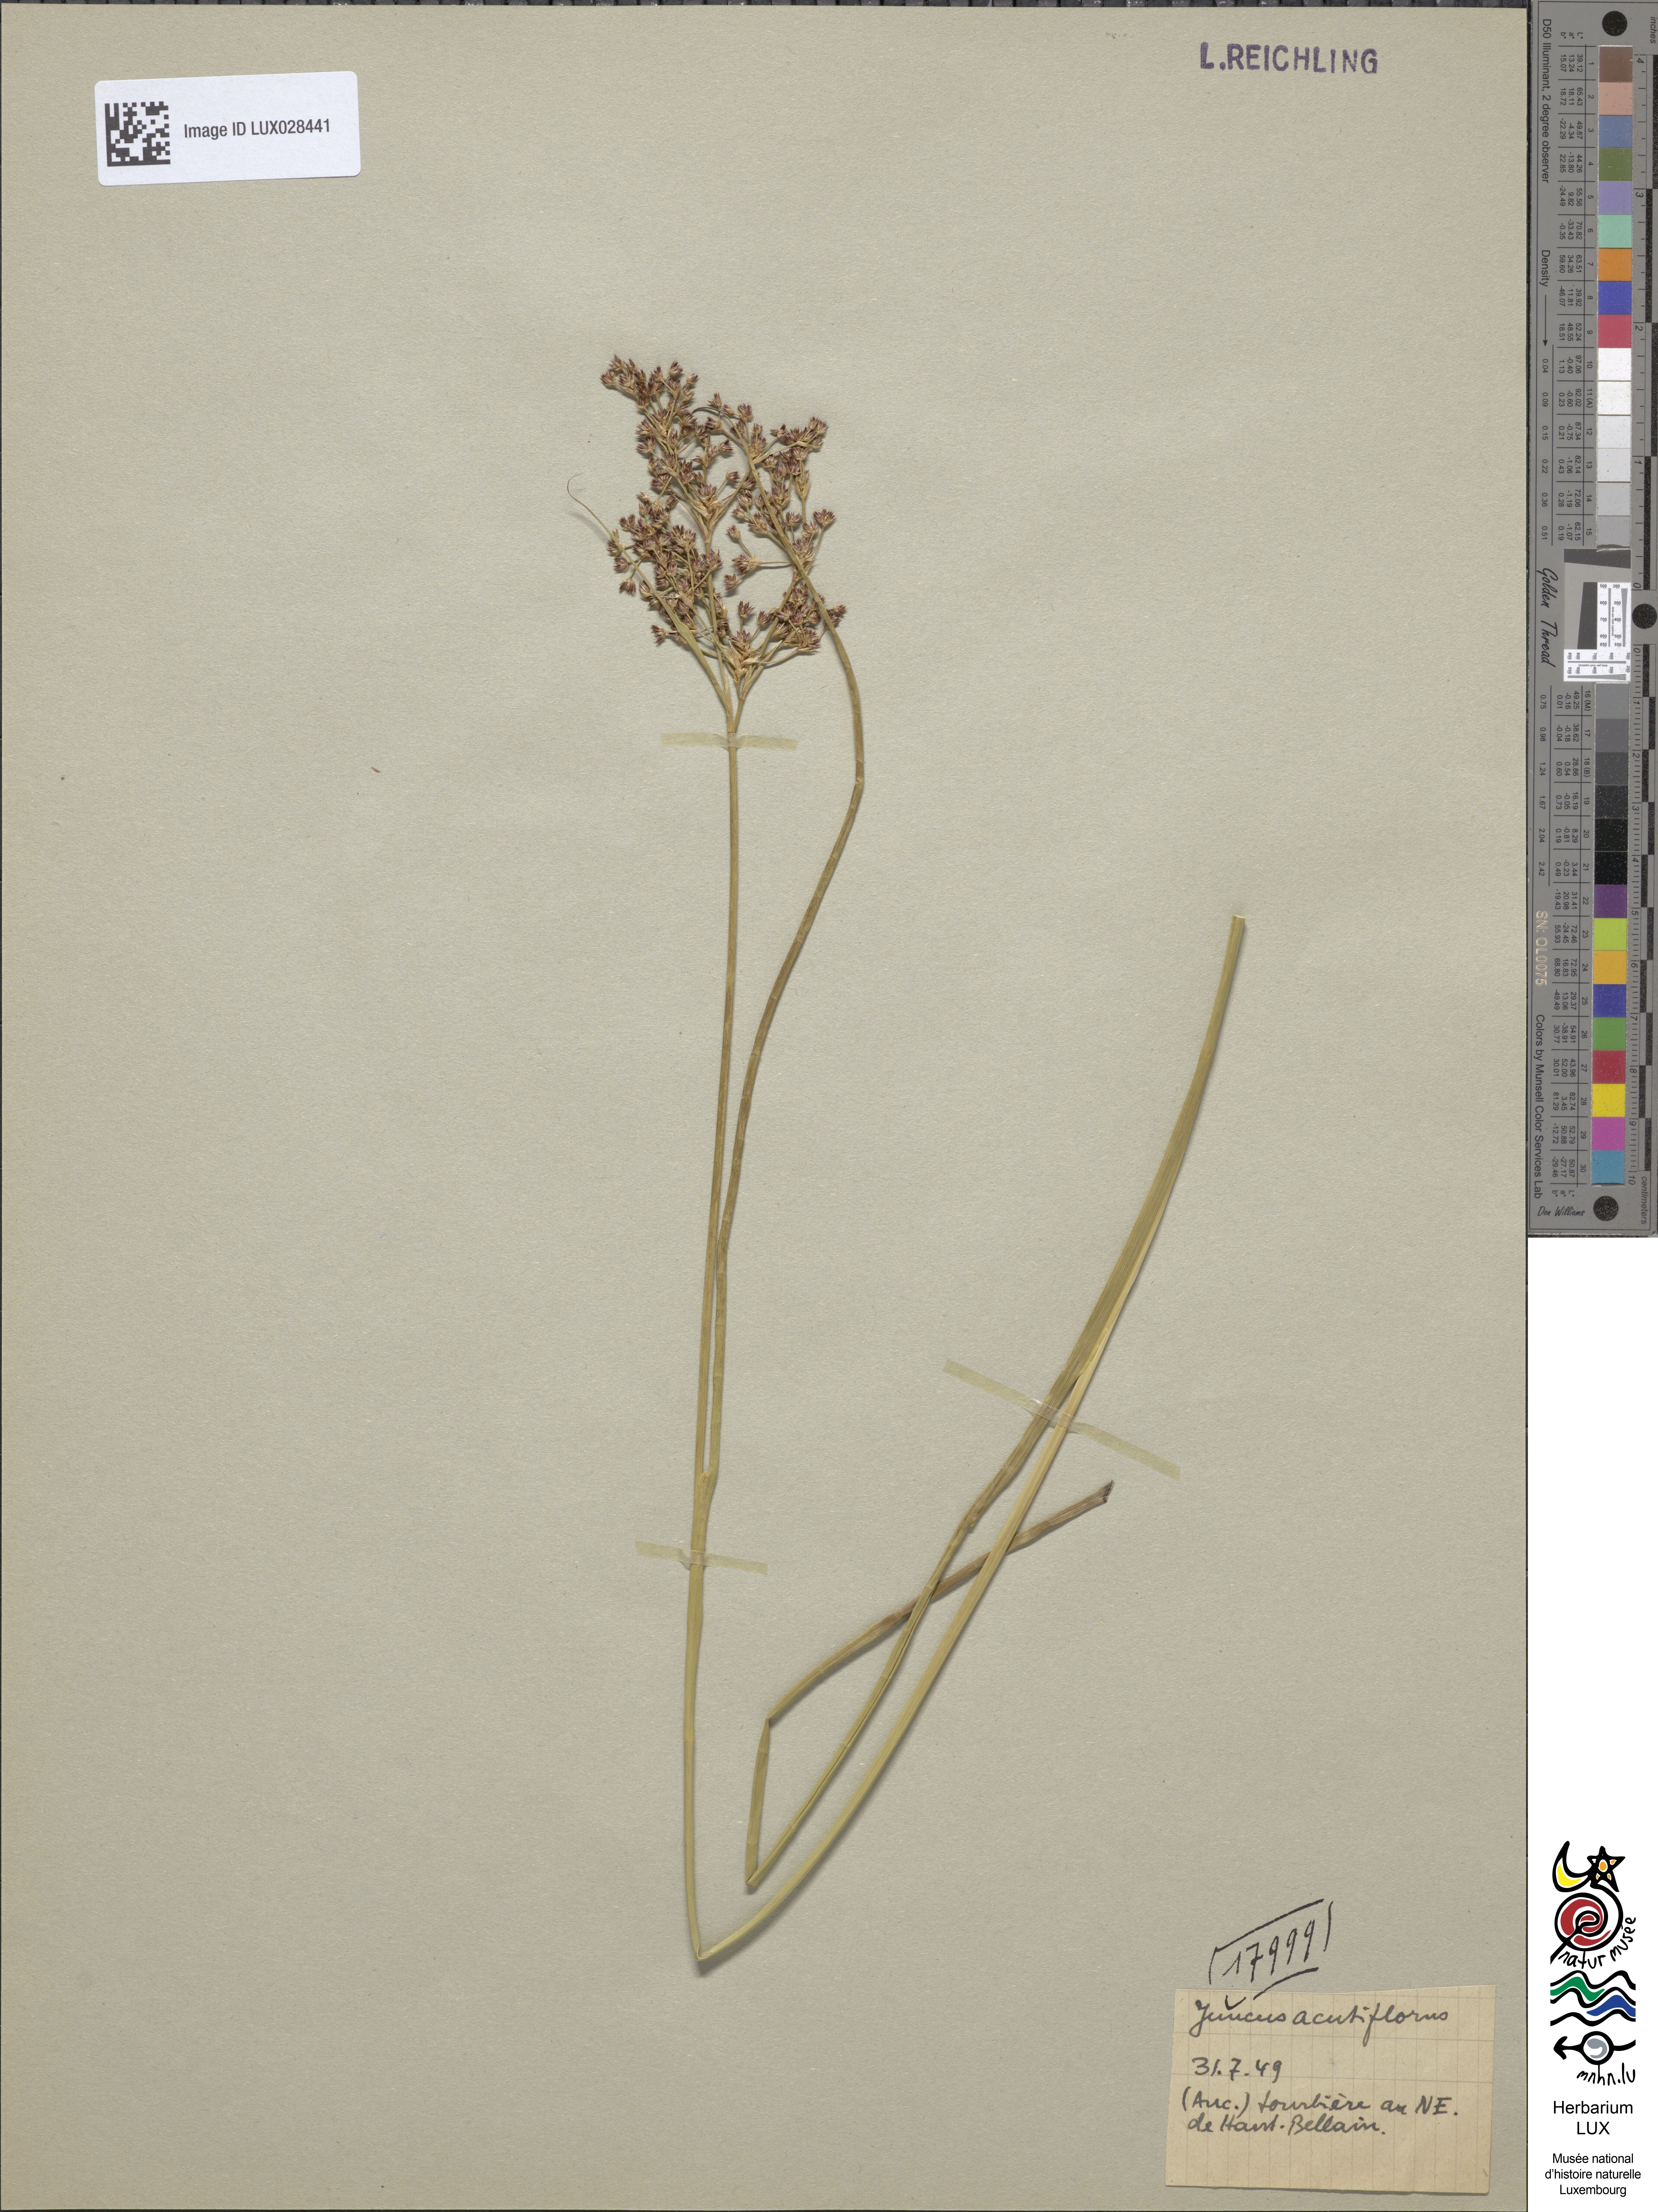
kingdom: Plantae
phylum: Tracheophyta
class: Liliopsida
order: Poales
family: Juncaceae
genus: Juncus
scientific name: Juncus acutiflorus
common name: Sharp-flowered rush
